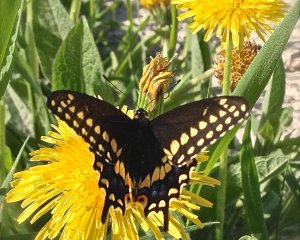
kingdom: Animalia
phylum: Arthropoda
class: Insecta
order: Lepidoptera
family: Papilionidae
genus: Papilio
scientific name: Papilio polyxenes
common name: Black Swallowtail
